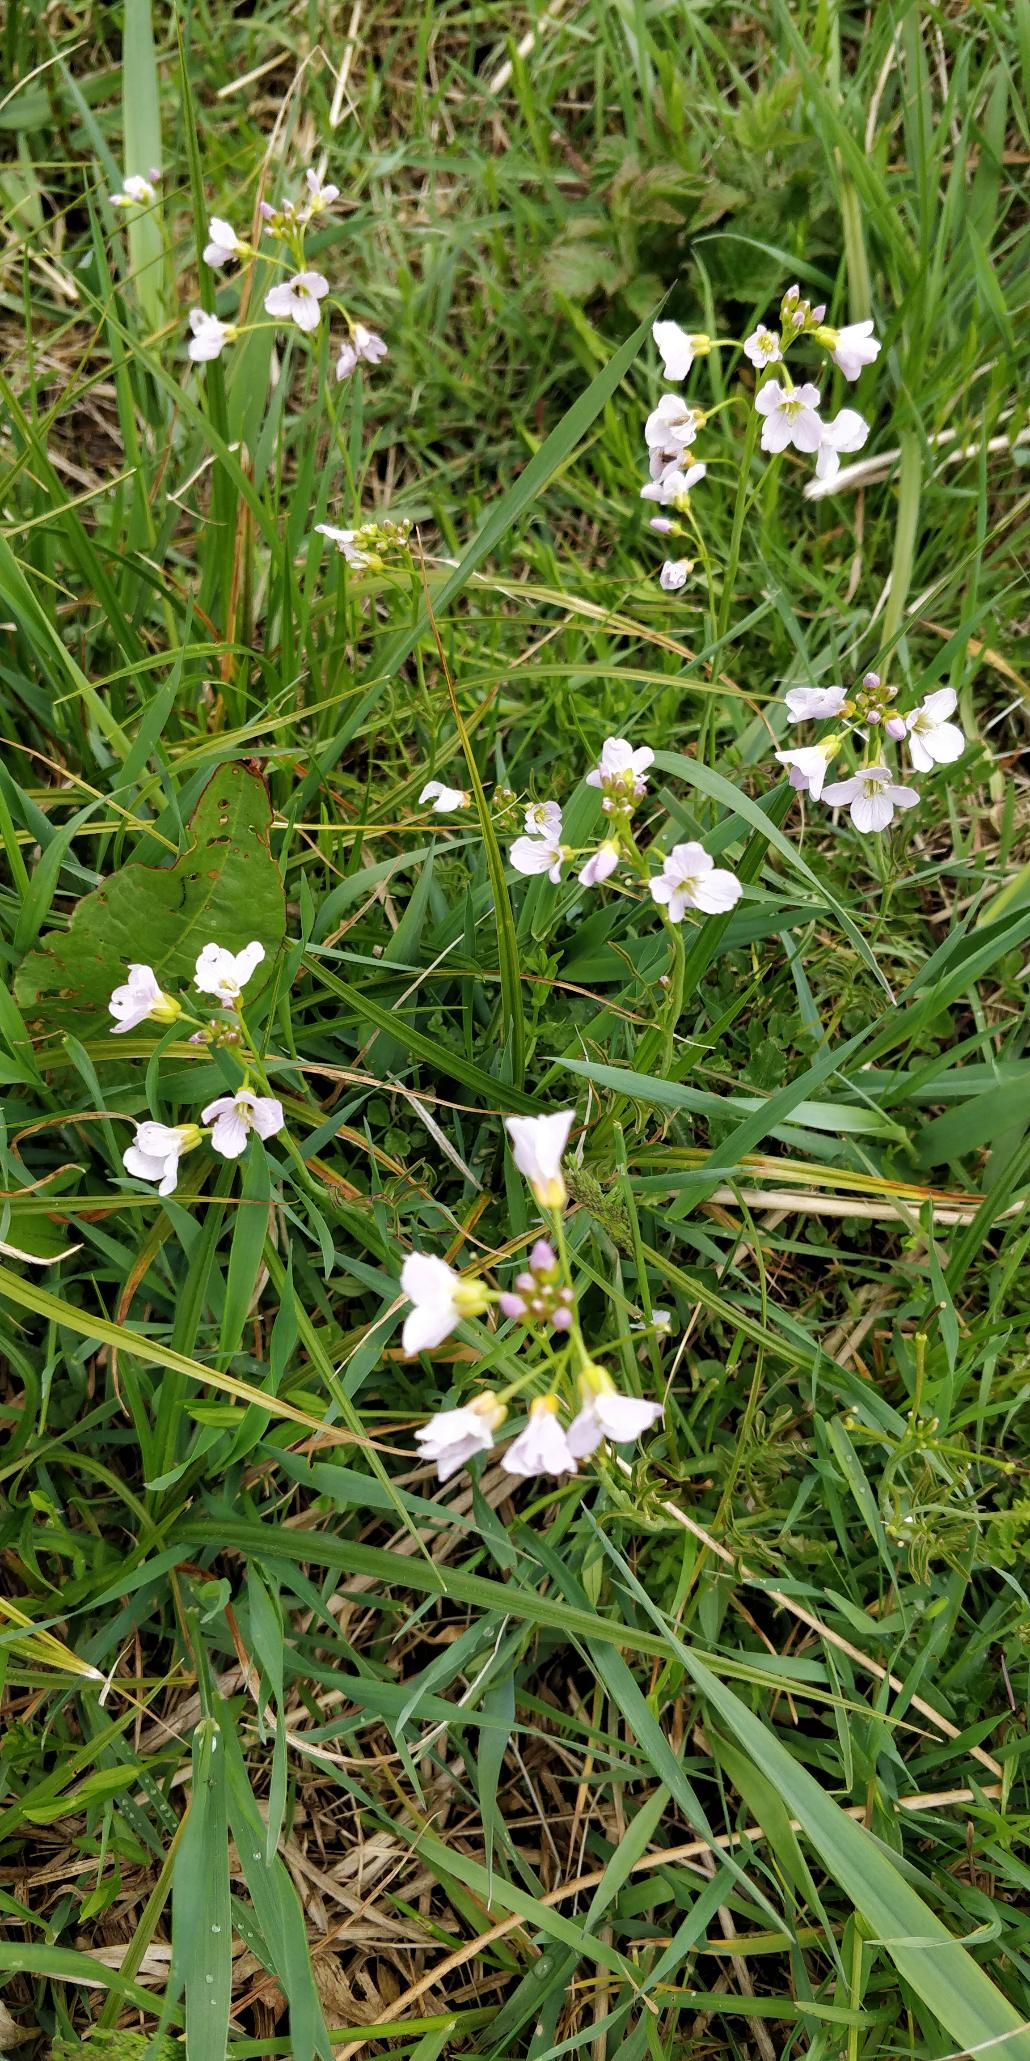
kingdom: Plantae
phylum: Tracheophyta
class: Magnoliopsida
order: Brassicales
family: Brassicaceae
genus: Cardamine
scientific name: Cardamine pratensis
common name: Engkarse
